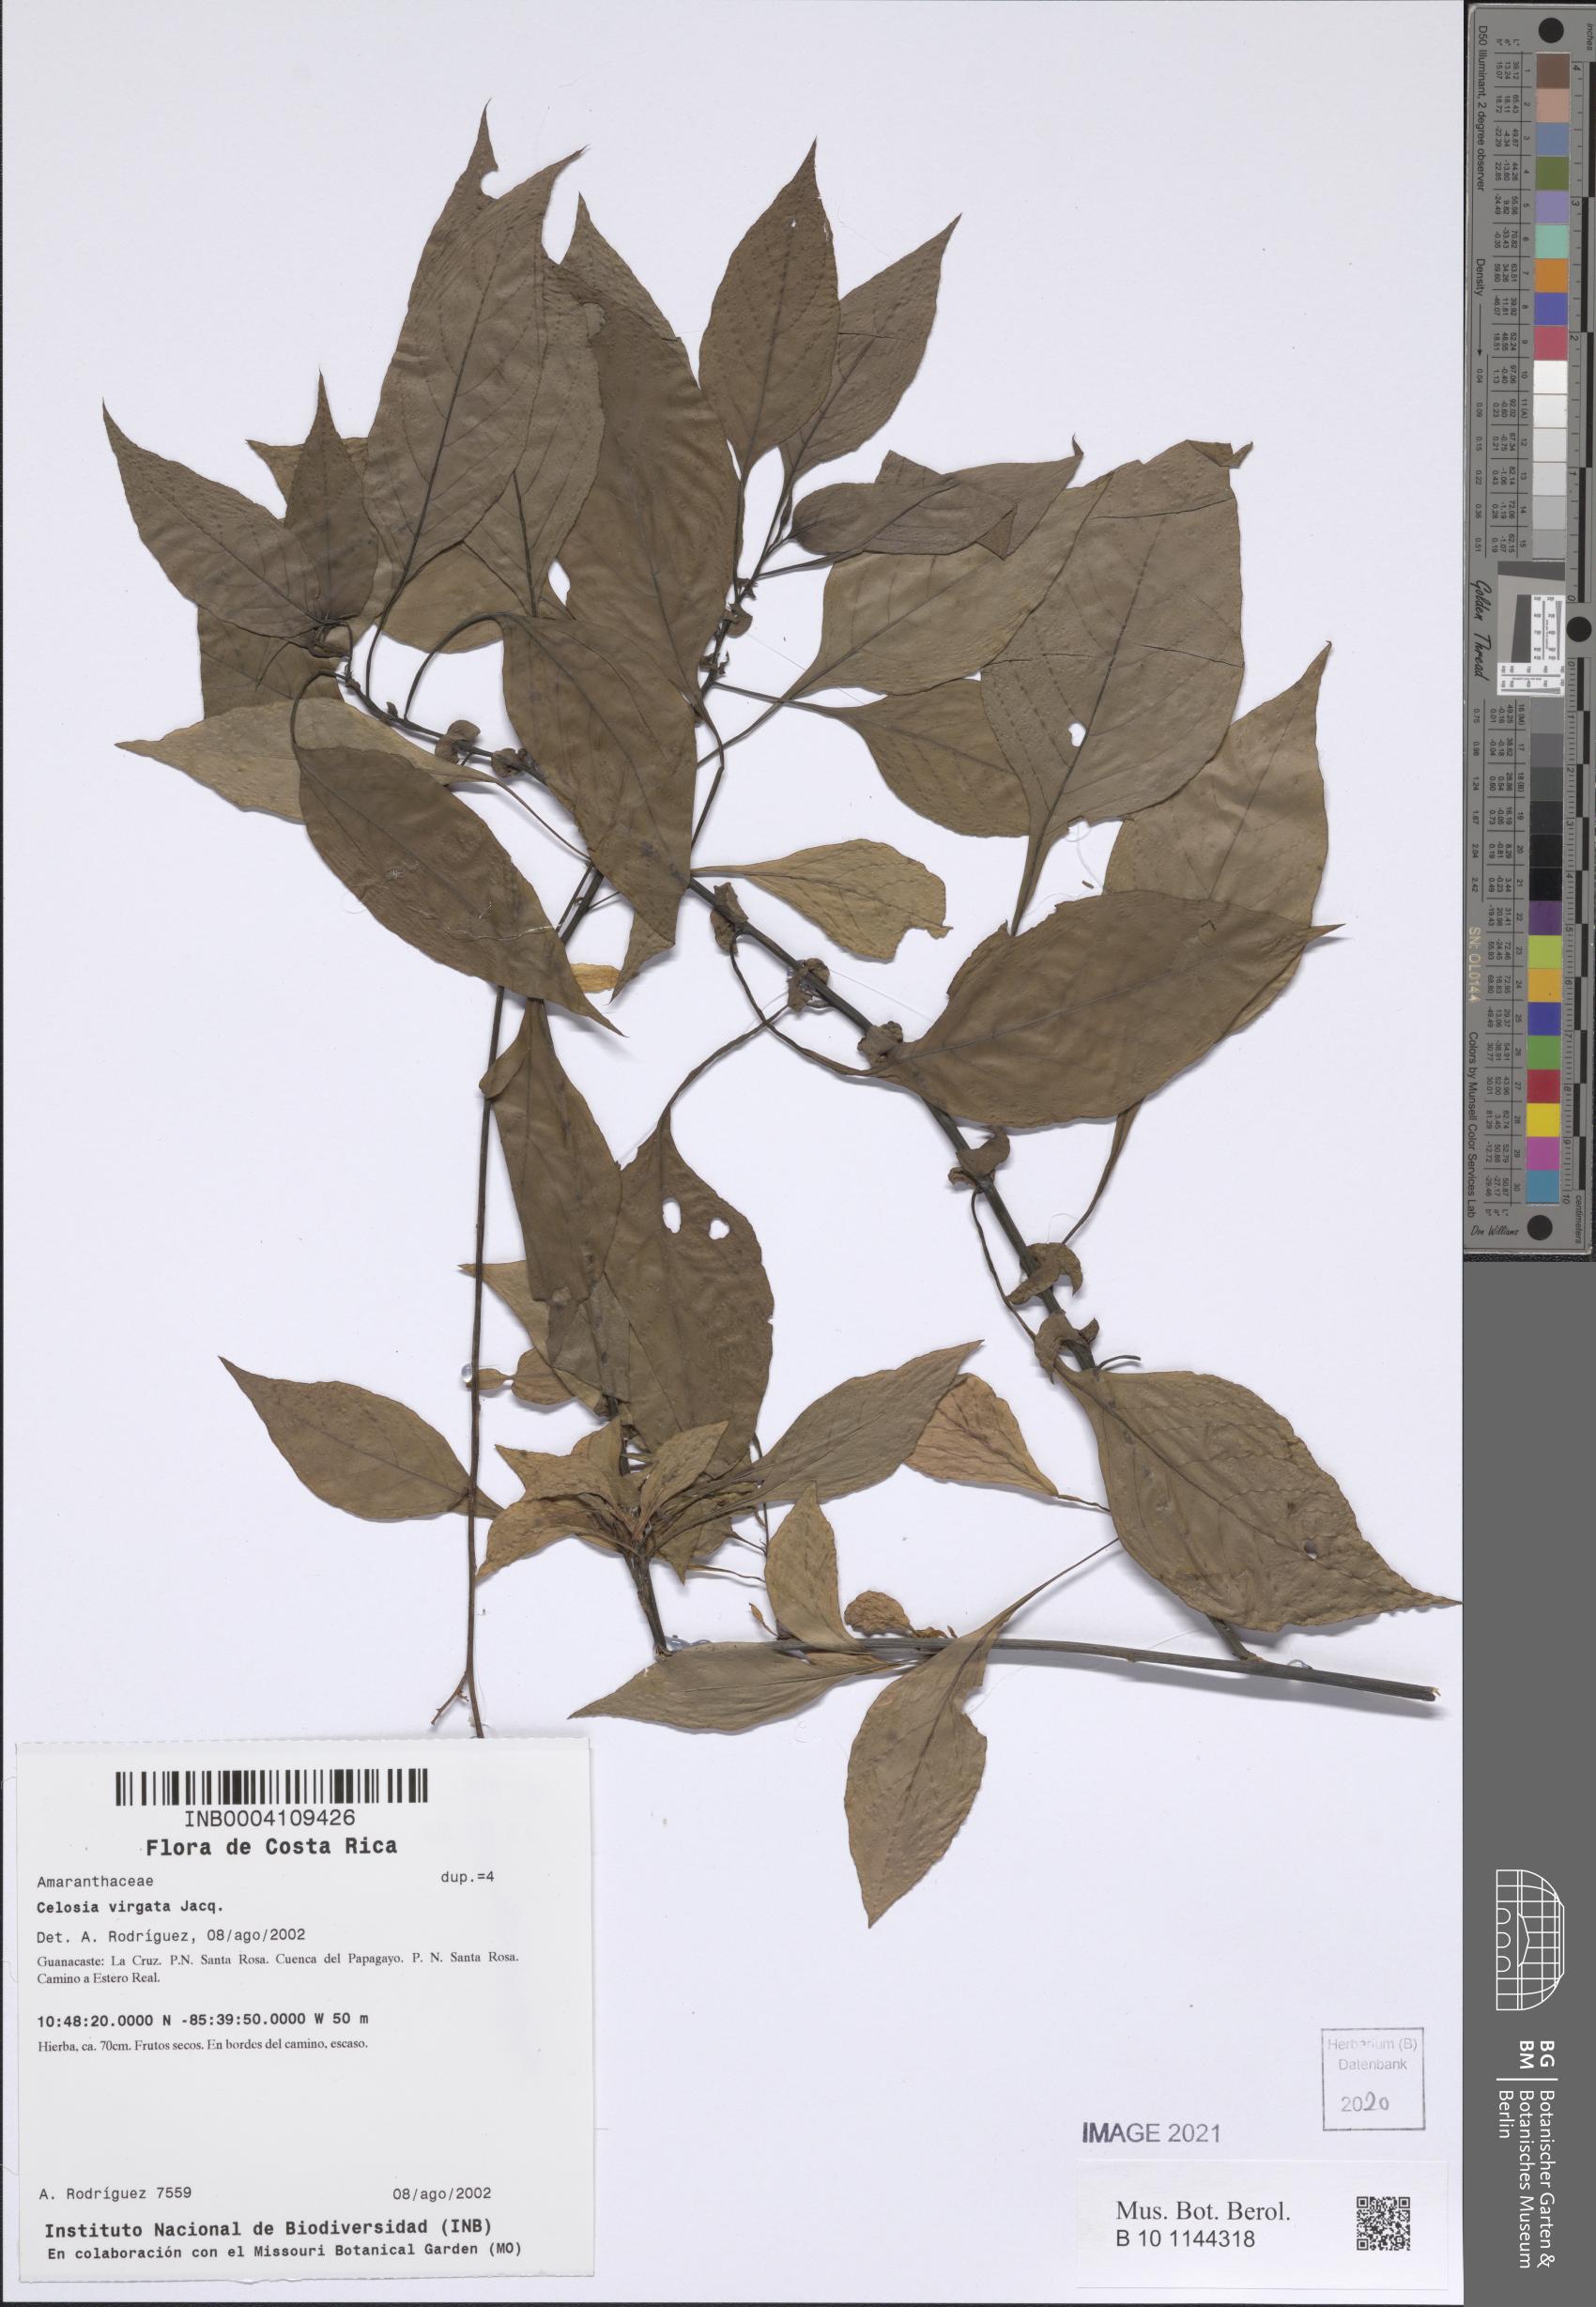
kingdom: Plantae
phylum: Tracheophyta
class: Magnoliopsida
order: Caryophyllales
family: Amaranthaceae
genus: Celosia
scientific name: Celosia virgata
